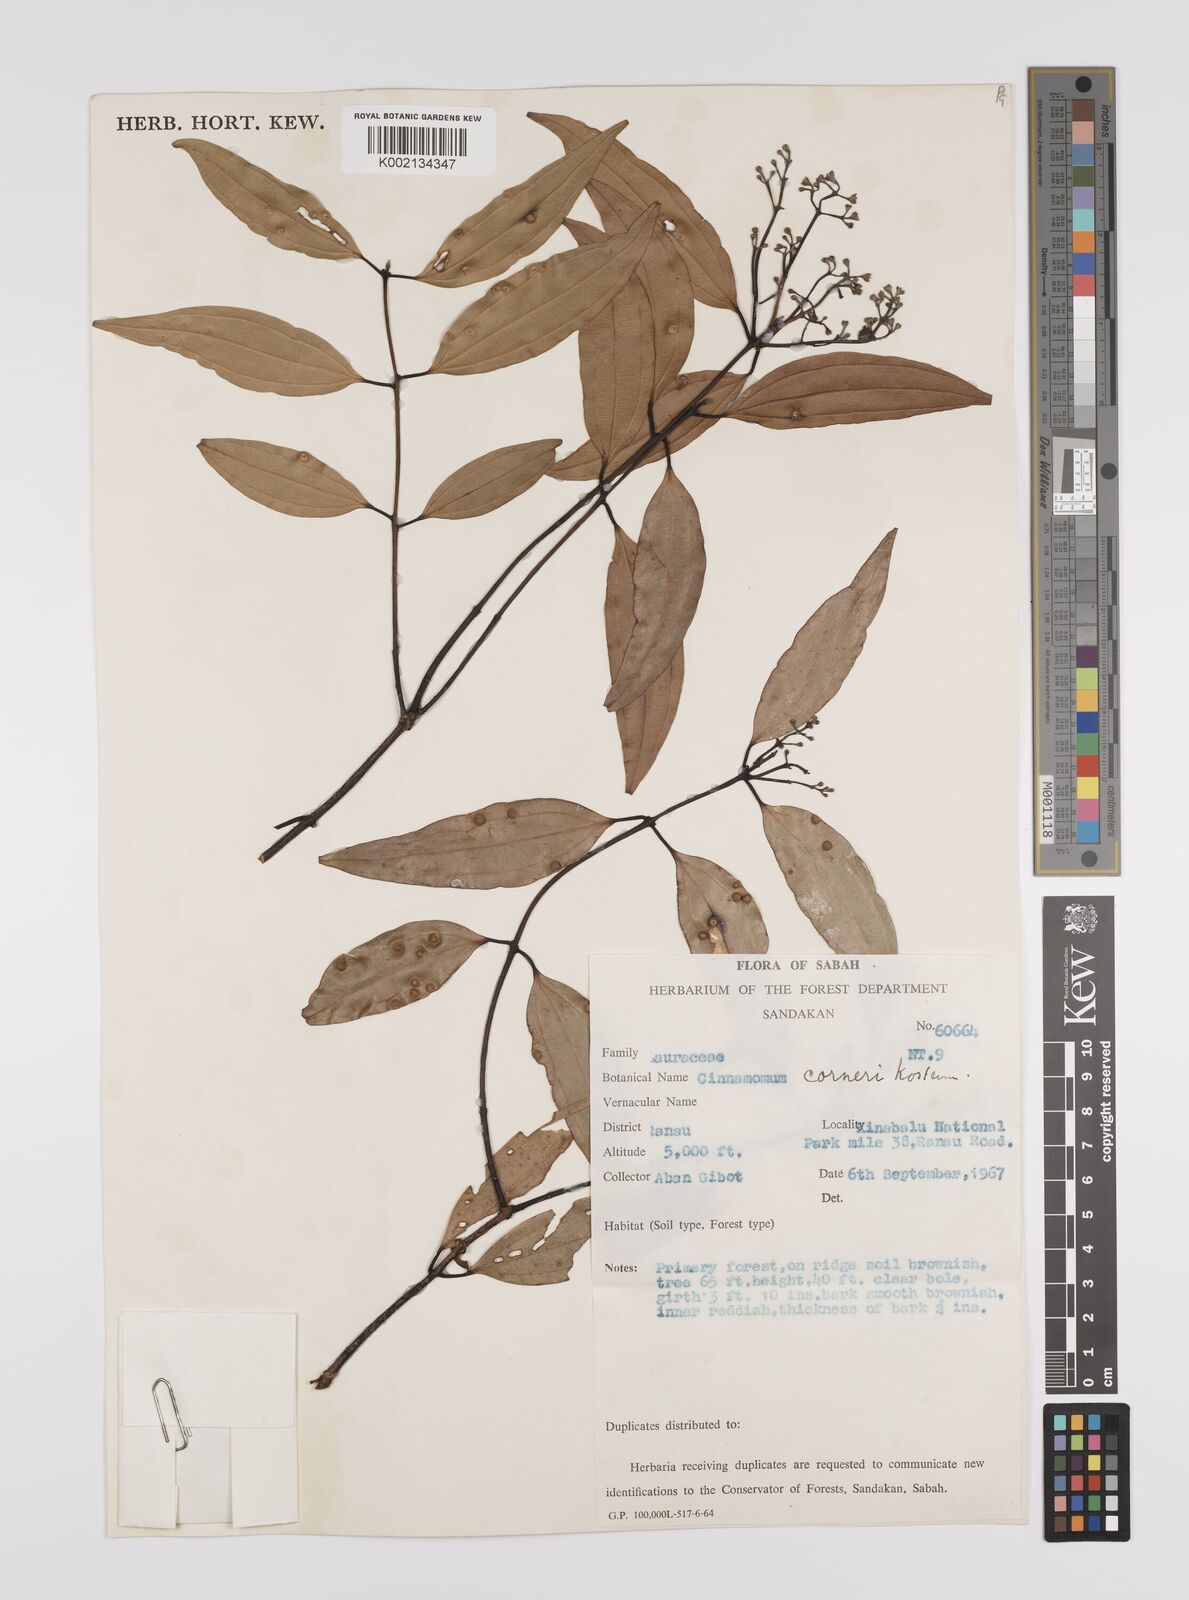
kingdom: Plantae
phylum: Tracheophyta
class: Magnoliopsida
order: Laurales
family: Lauraceae
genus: Cinnamomum
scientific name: Cinnamomum corneri
